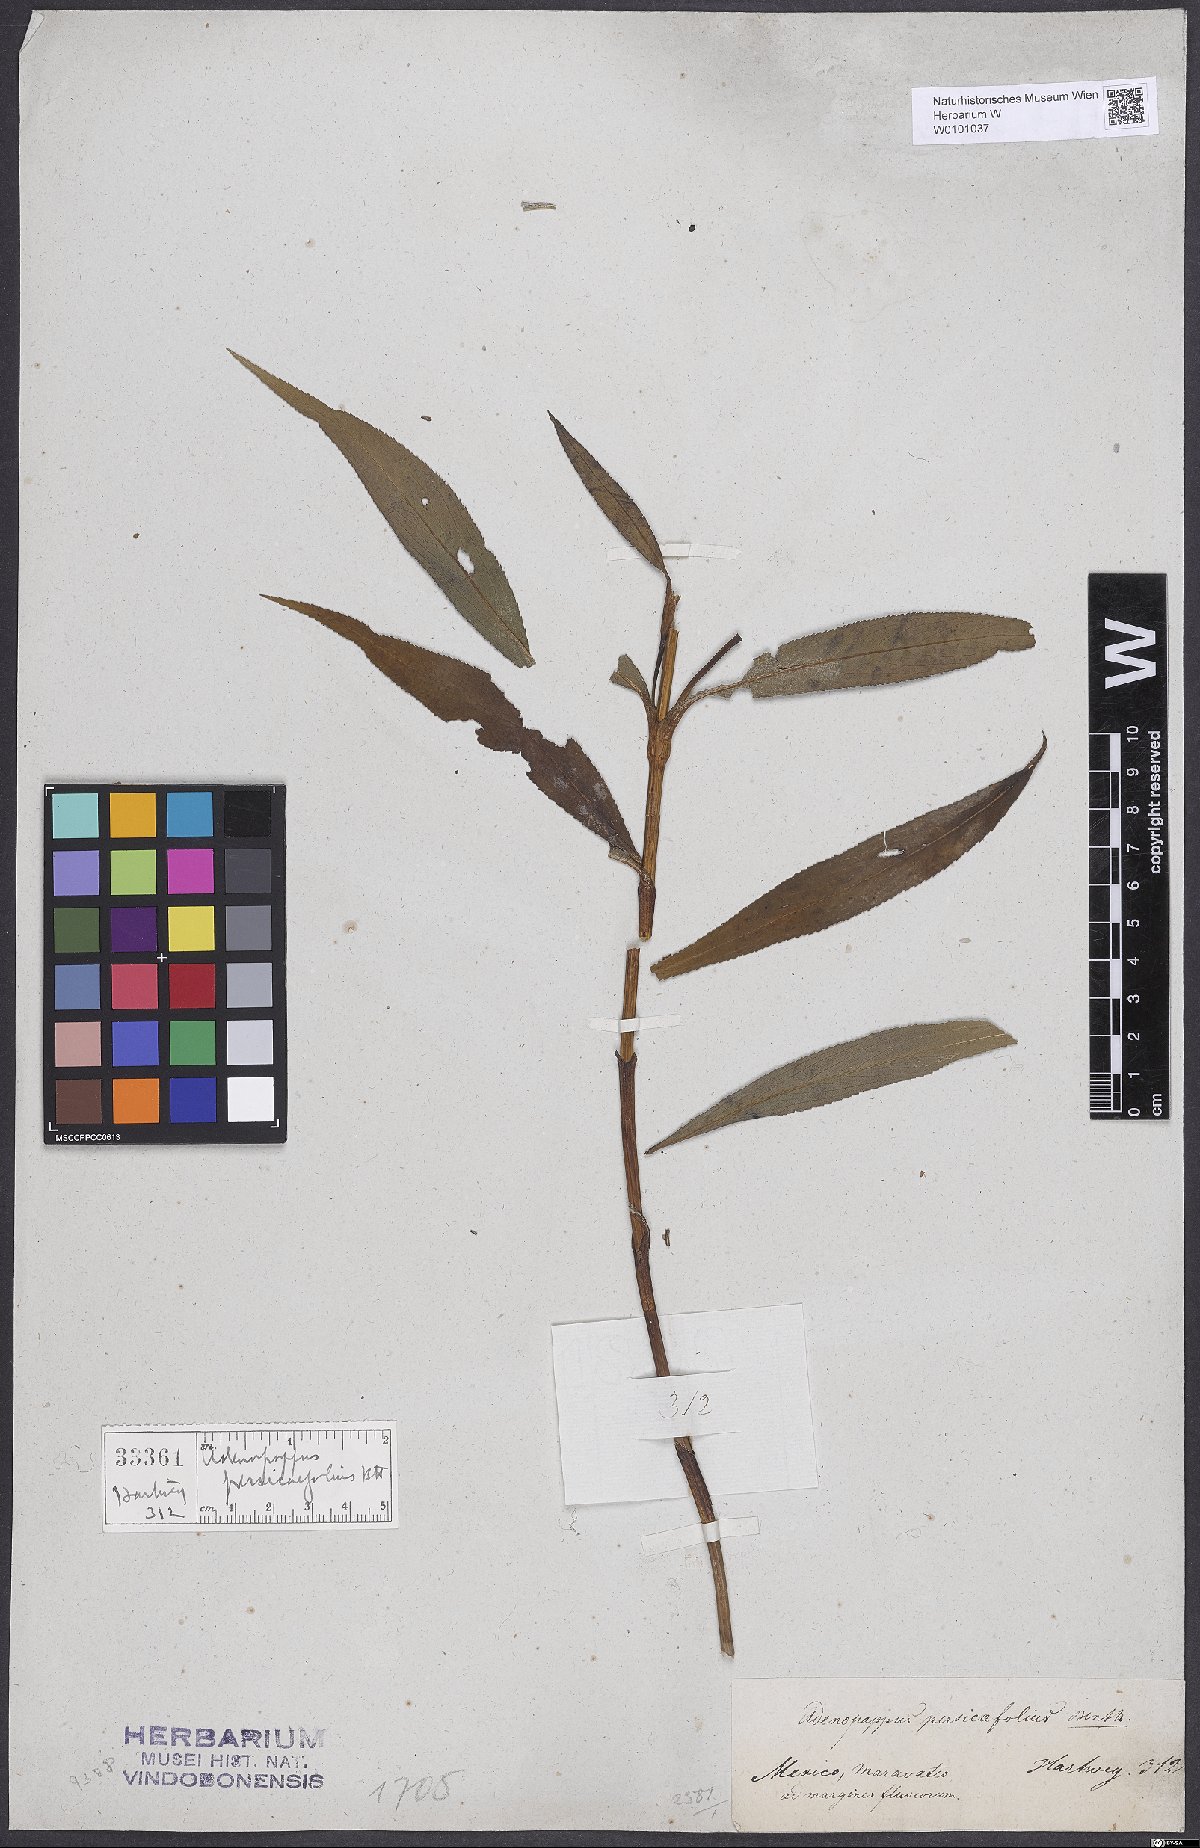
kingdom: Plantae
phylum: Tracheophyta
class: Magnoliopsida
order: Asterales
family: Asteraceae
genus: Tagetes
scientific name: Tagetes persicifolia
